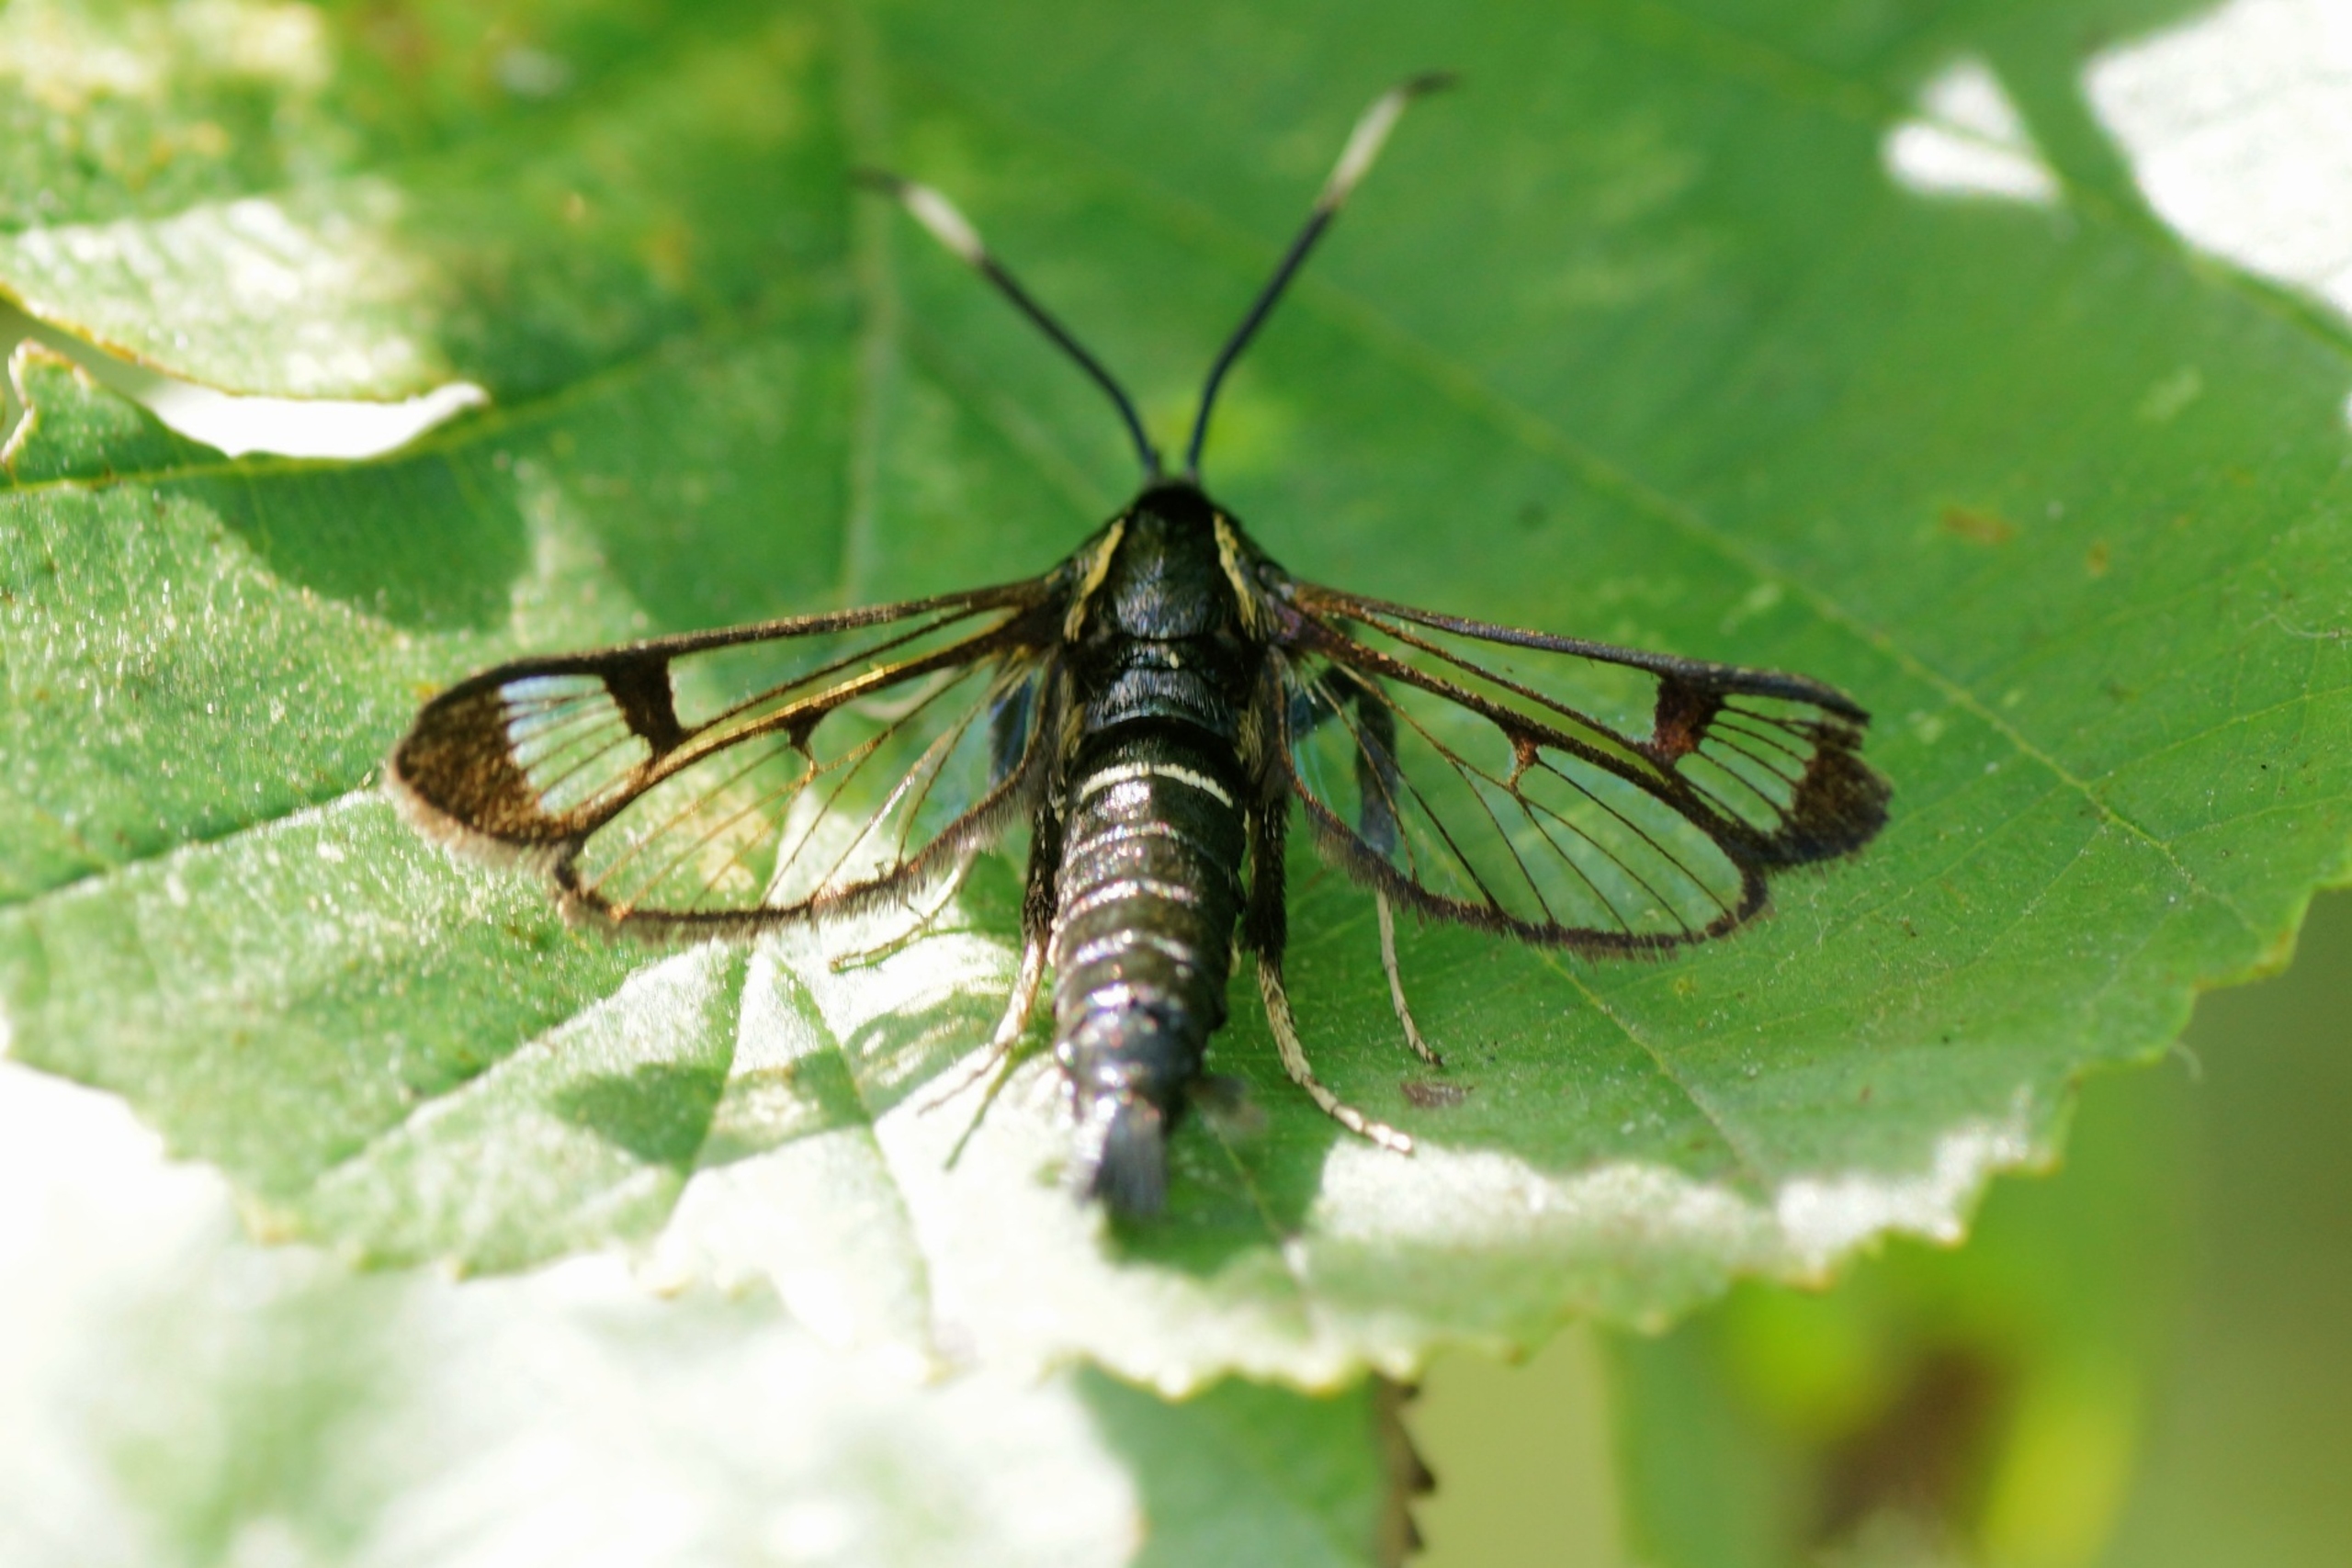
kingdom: Animalia
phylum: Arthropoda
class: Insecta
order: Lepidoptera
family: Sesiidae
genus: Synanthedon
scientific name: Synanthedon spheciformis
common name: Elleglassværmer
